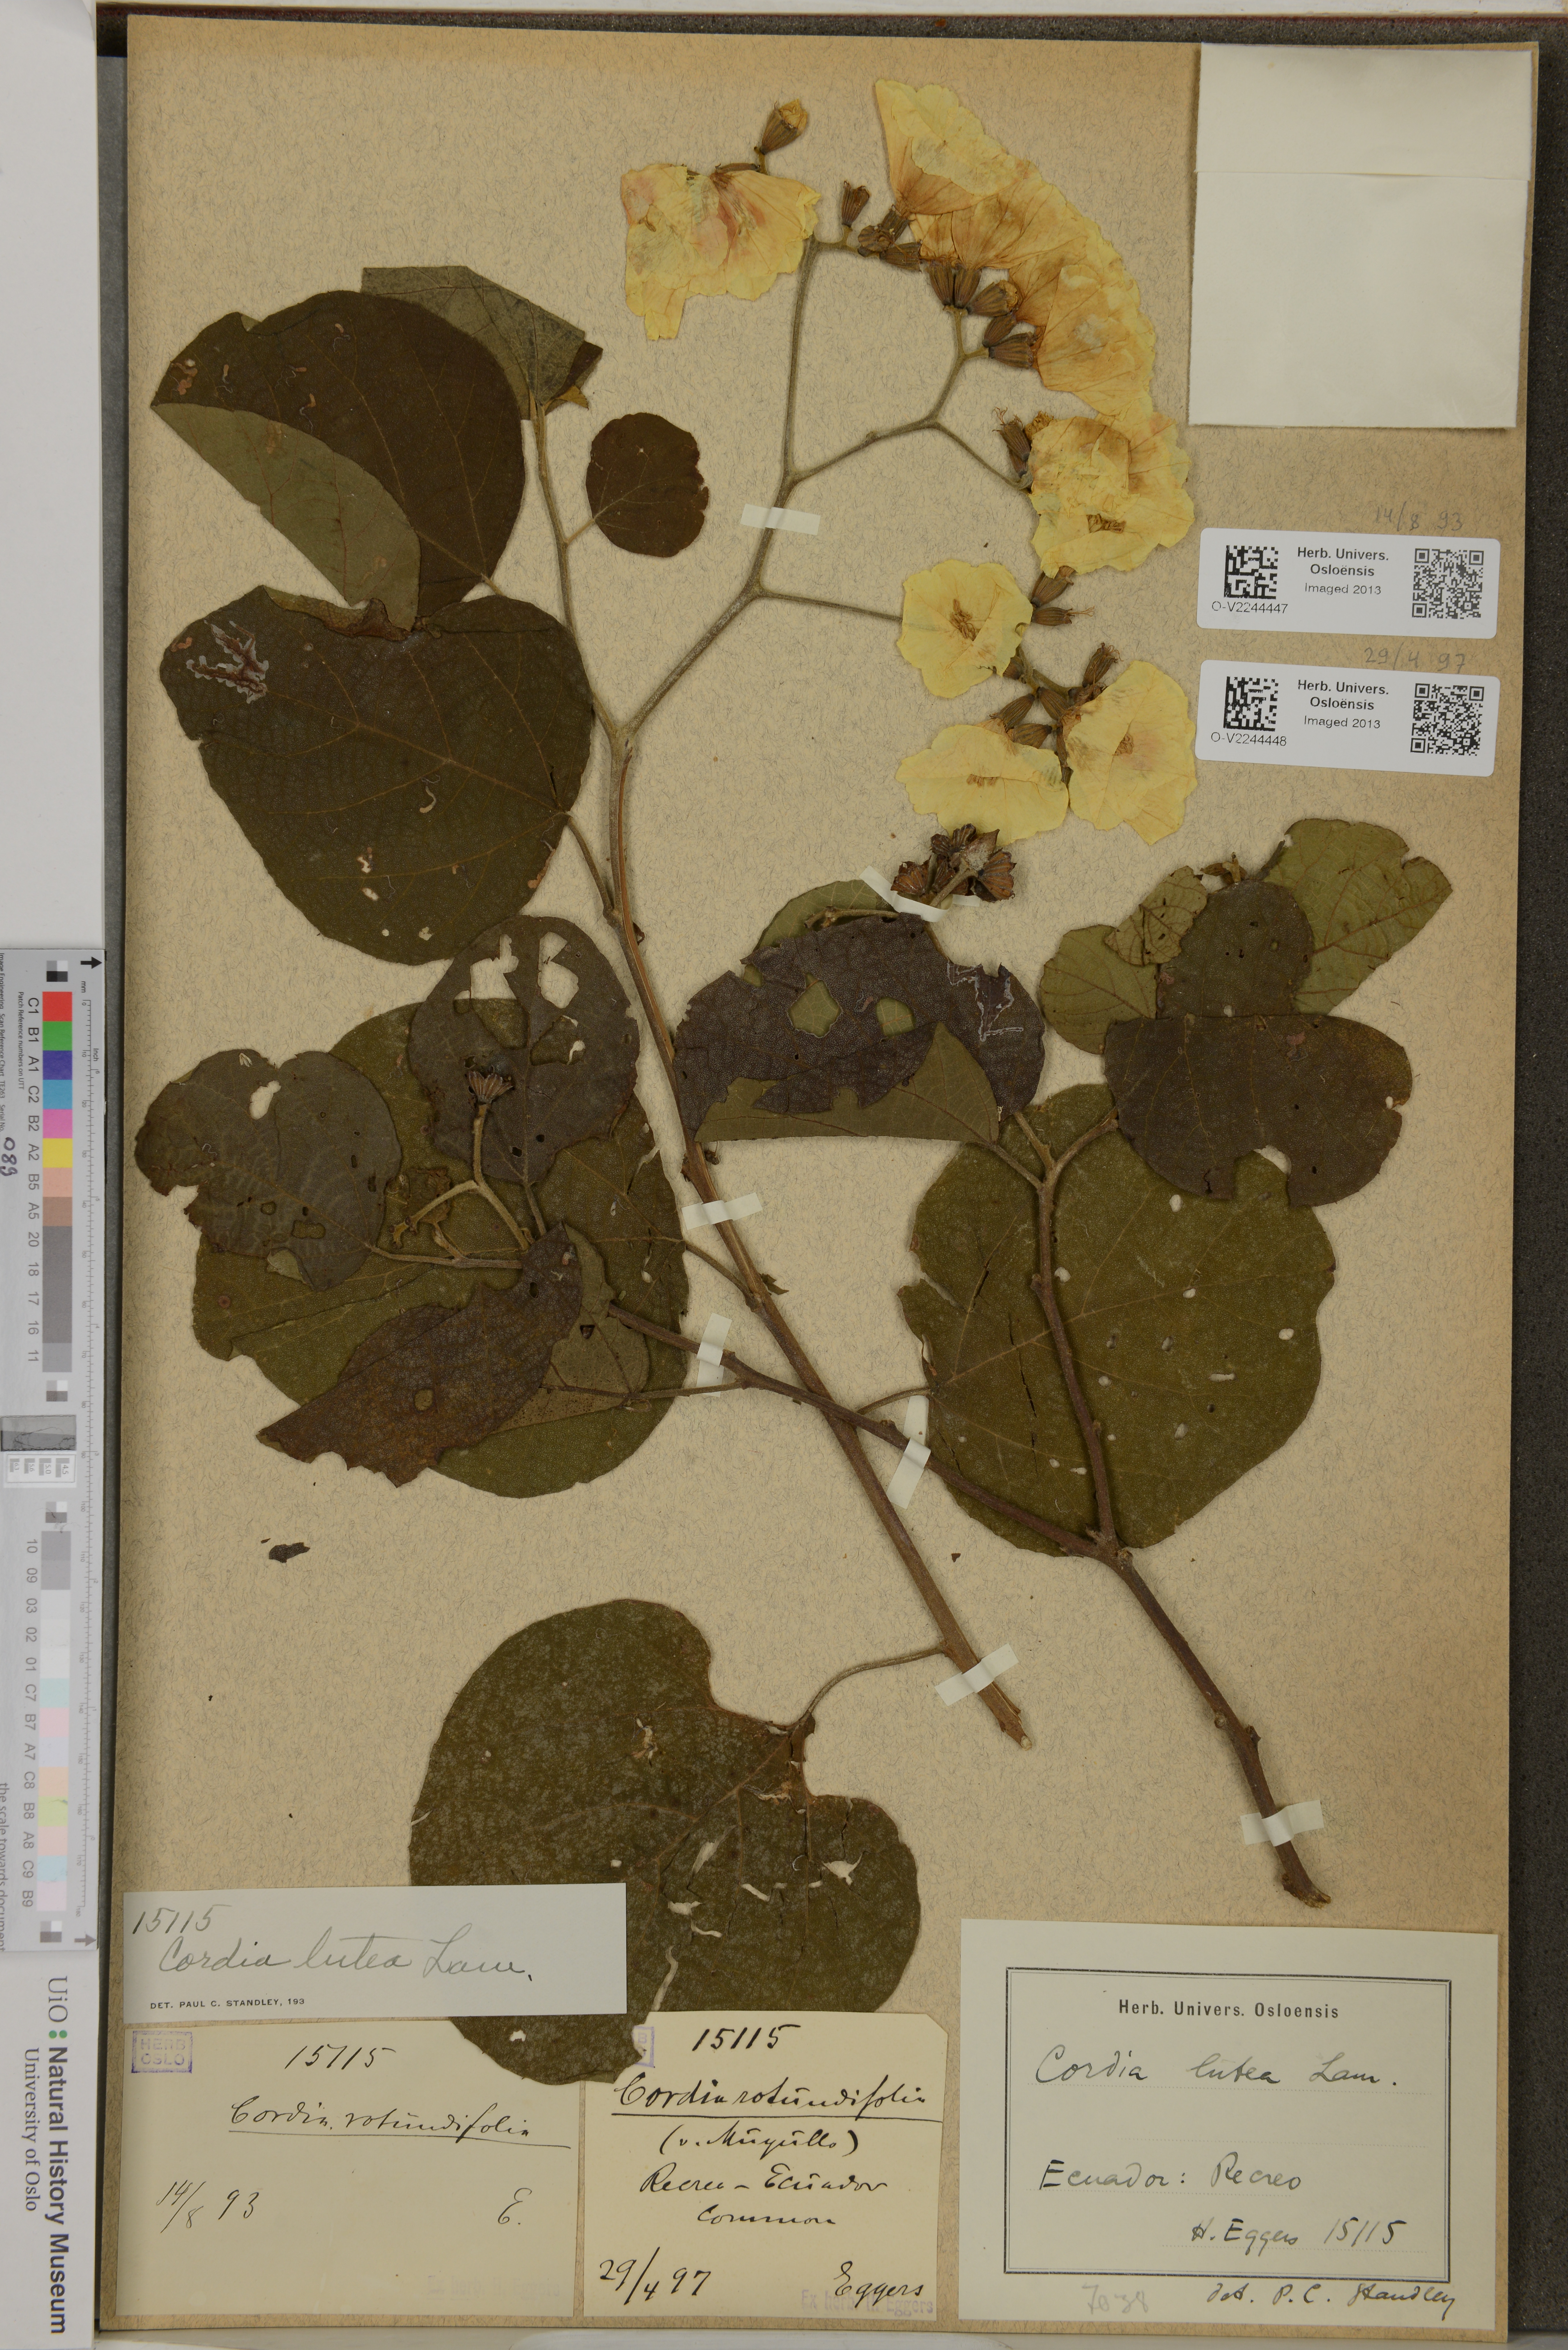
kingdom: Plantae
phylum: Tracheophyta
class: Magnoliopsida
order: Boraginales
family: Cordiaceae
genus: Cordia
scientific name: Cordia lutea
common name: Yellow geiger
